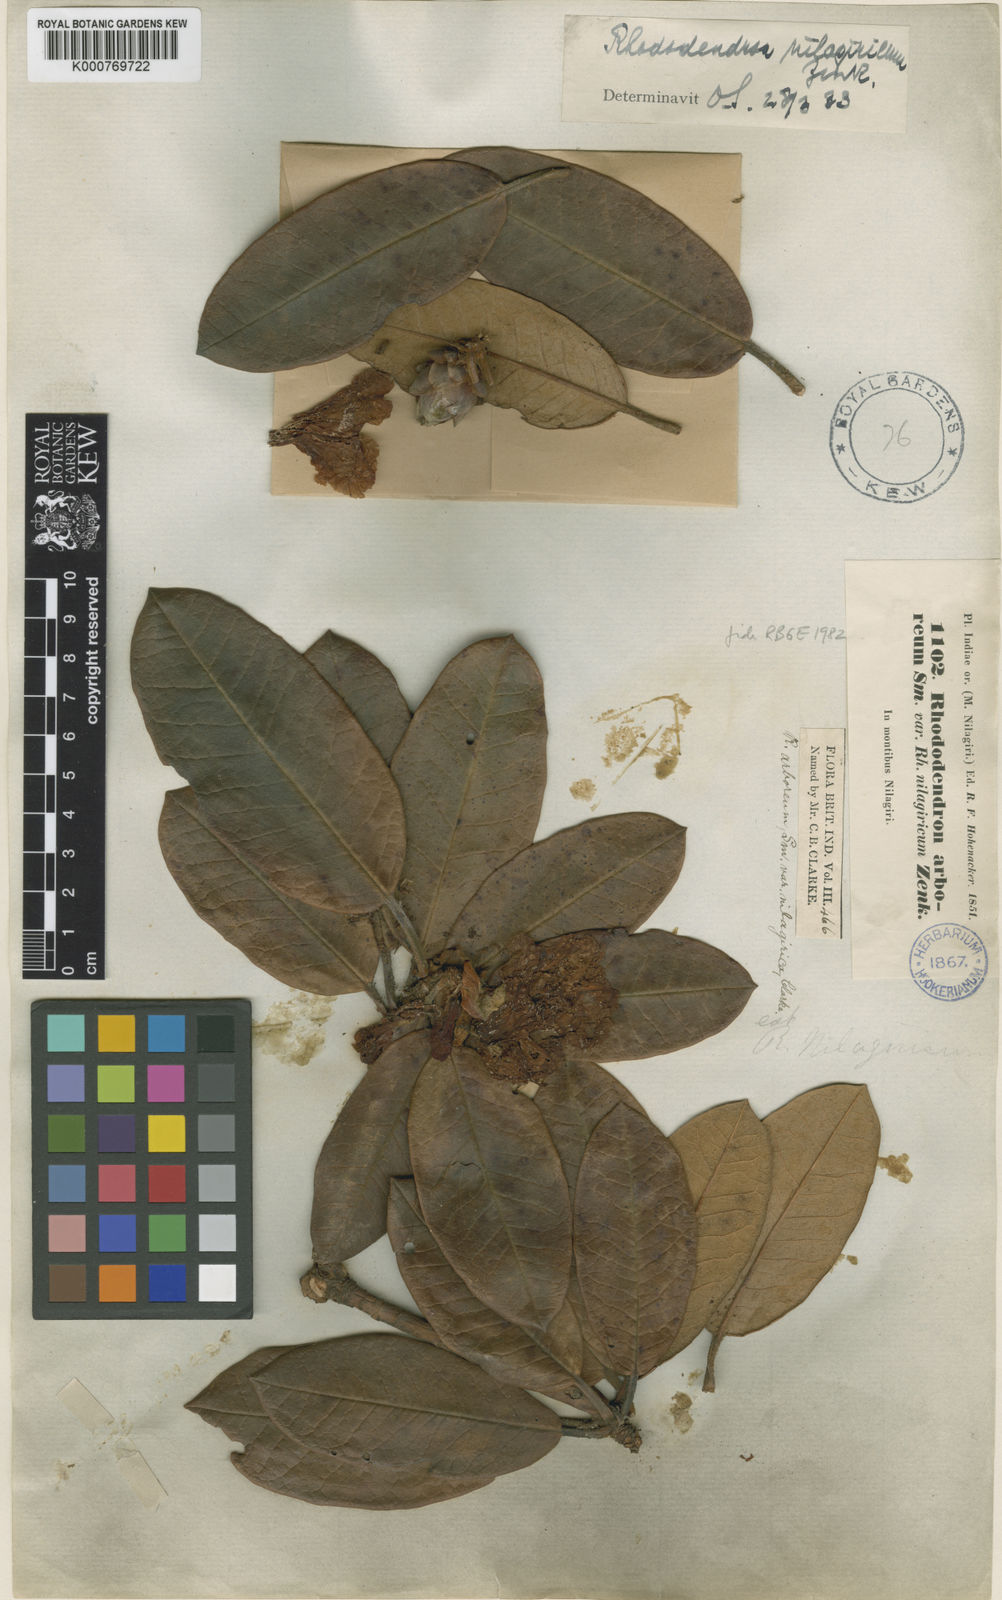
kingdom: Plantae
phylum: Tracheophyta
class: Magnoliopsida
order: Ericales
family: Ericaceae
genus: Rhododendron
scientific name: Rhododendron arboreum
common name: Tree rhododendron
